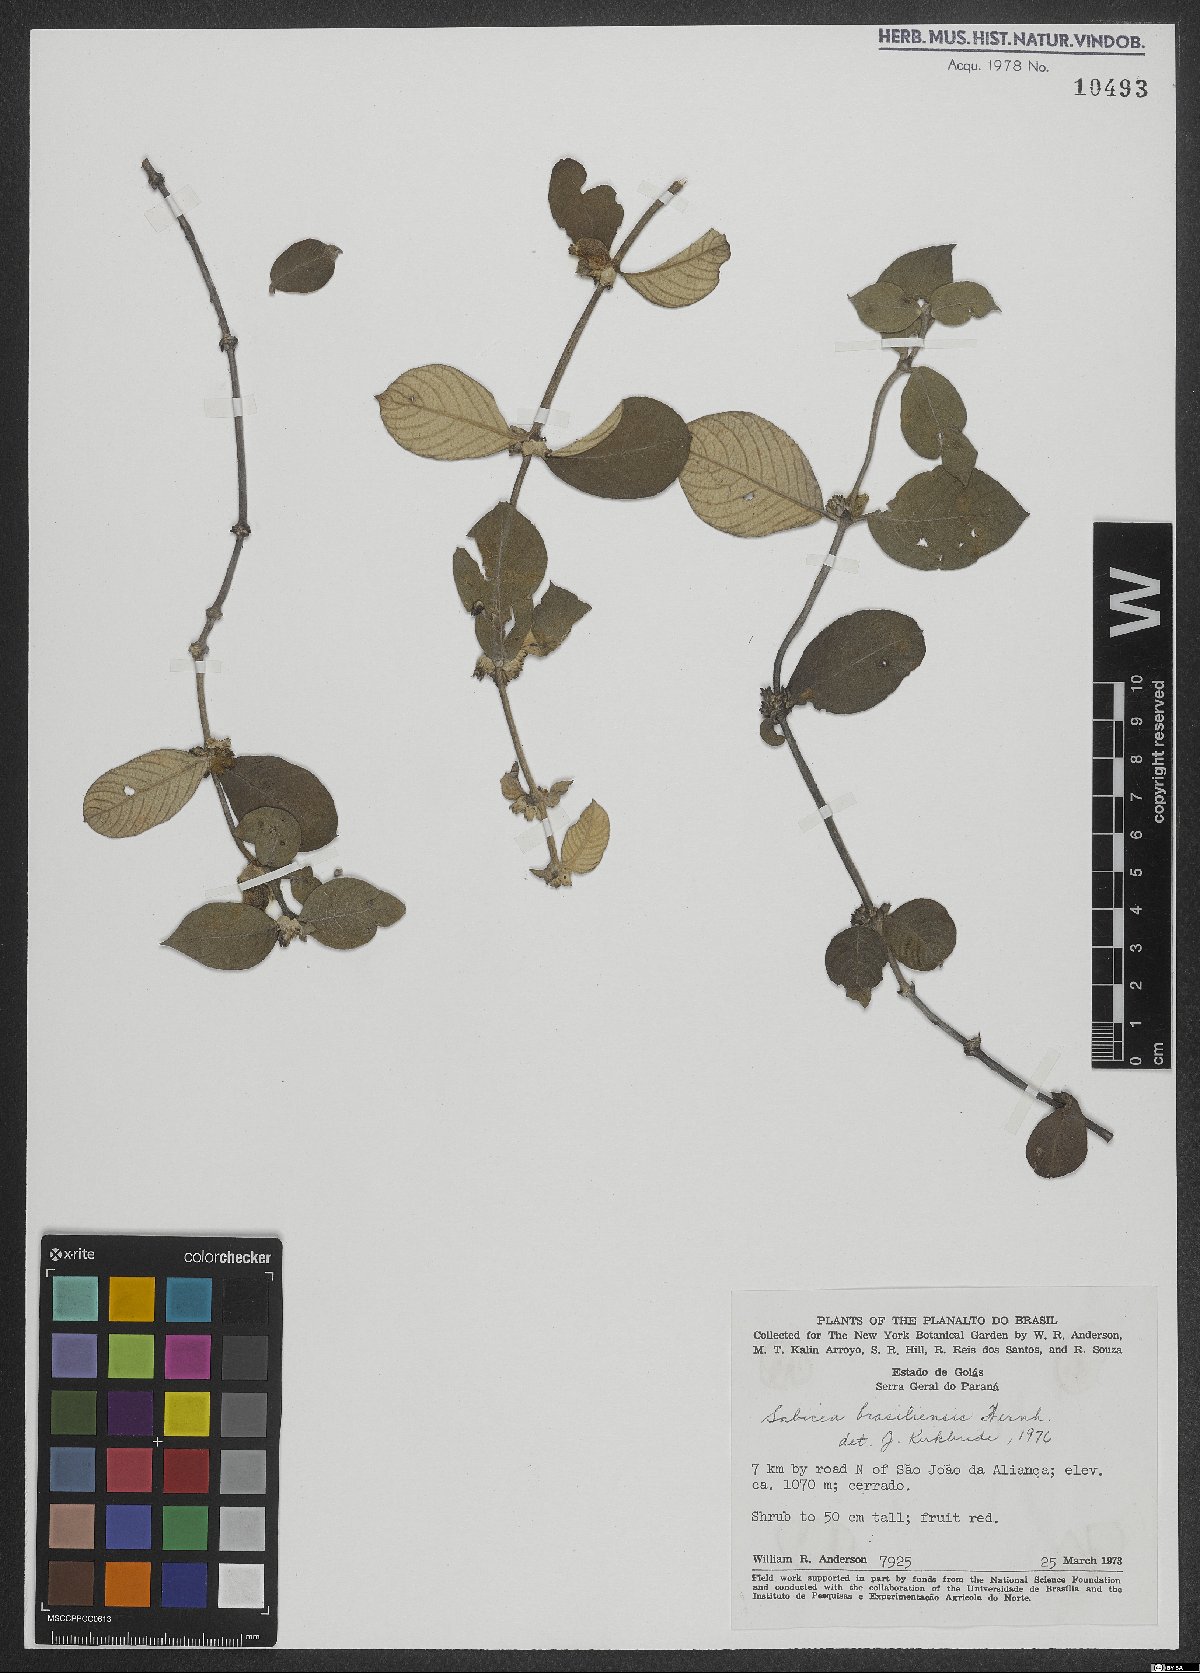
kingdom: Plantae
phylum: Tracheophyta
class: Magnoliopsida
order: Gentianales
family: Rubiaceae
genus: Sabicea
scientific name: Sabicea brasiliensis
